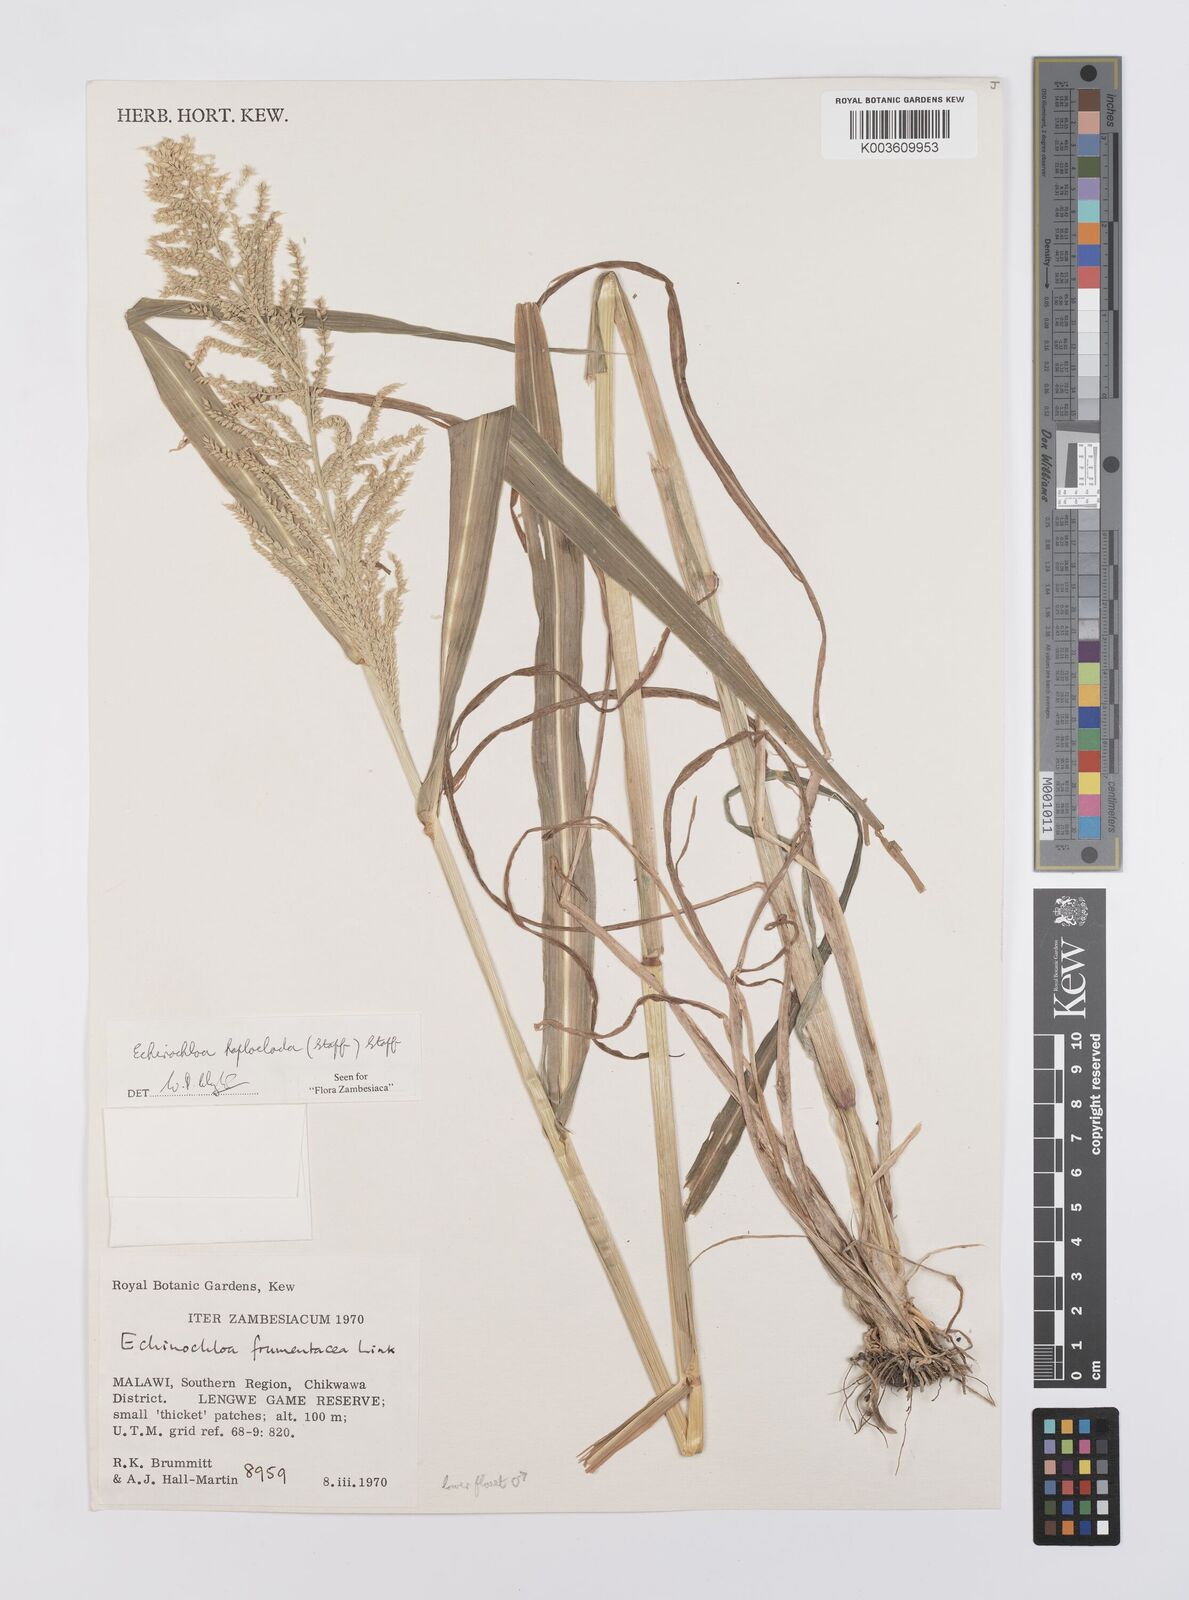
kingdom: Plantae
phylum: Tracheophyta
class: Liliopsida
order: Poales
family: Poaceae
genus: Echinochloa
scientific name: Echinochloa haploclada
